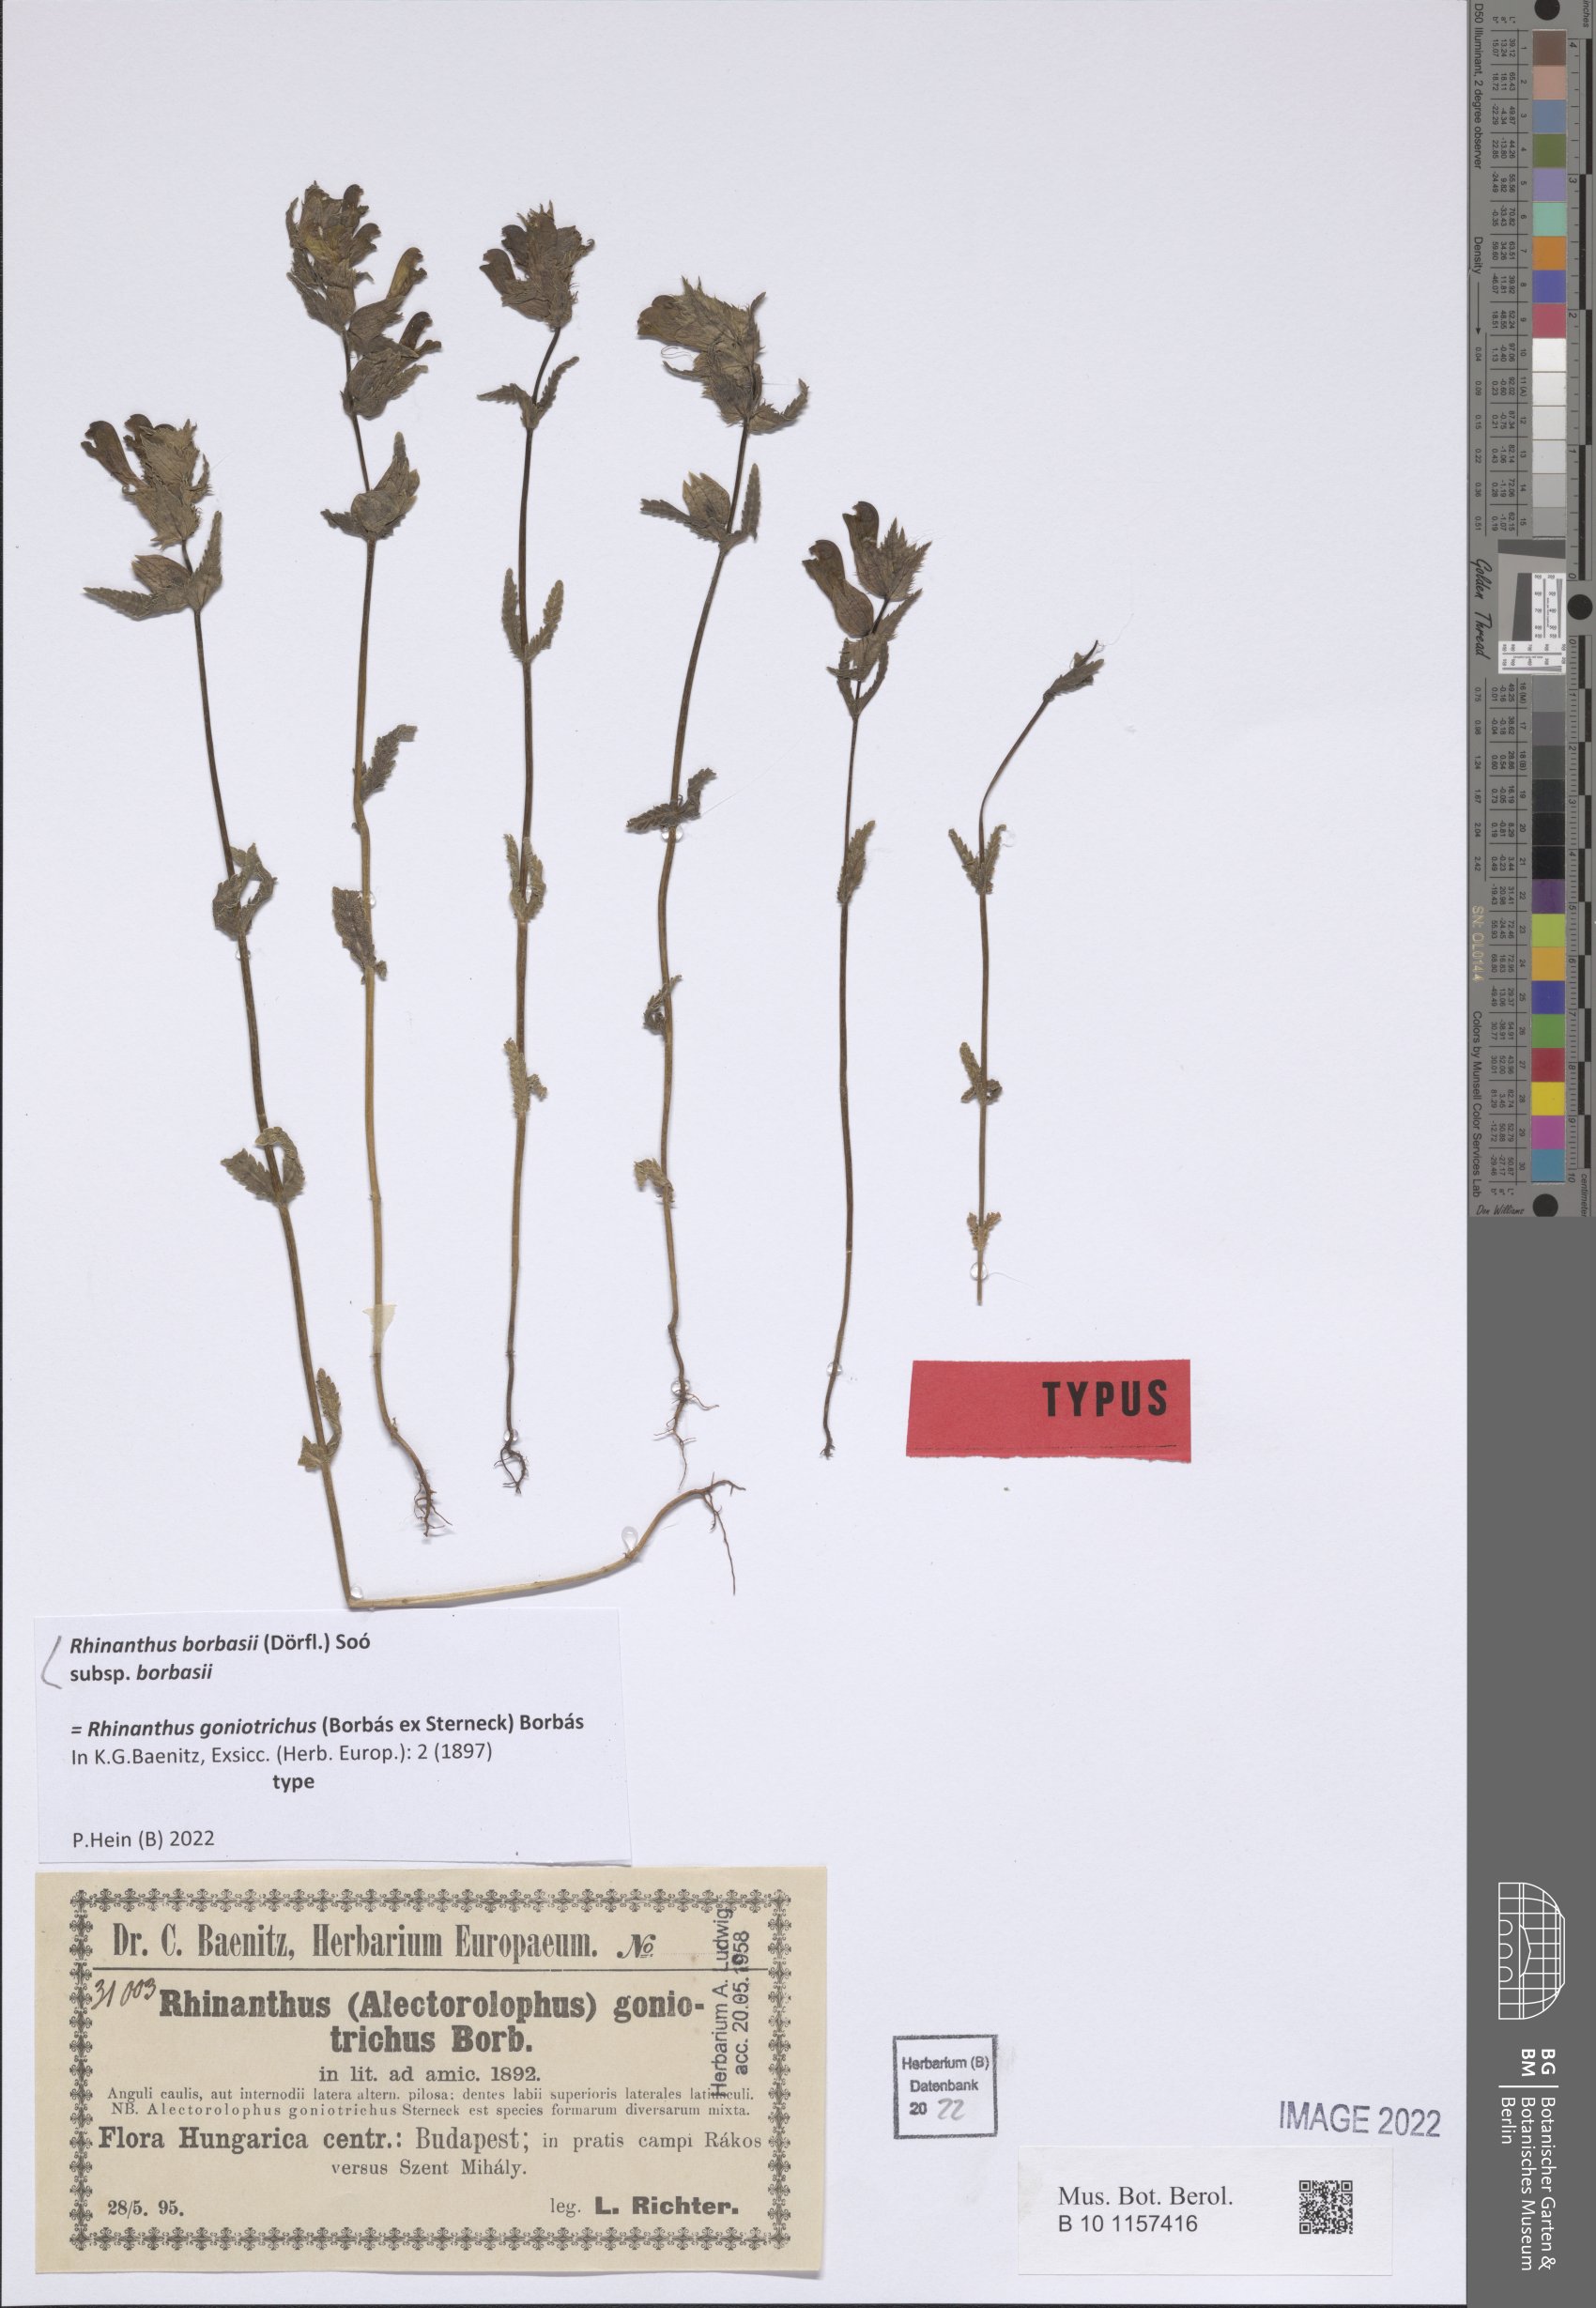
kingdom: Plantae
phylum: Tracheophyta
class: Magnoliopsida
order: Lamiales
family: Orobanchaceae
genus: Rhinanthus
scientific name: Rhinanthus borbasii
